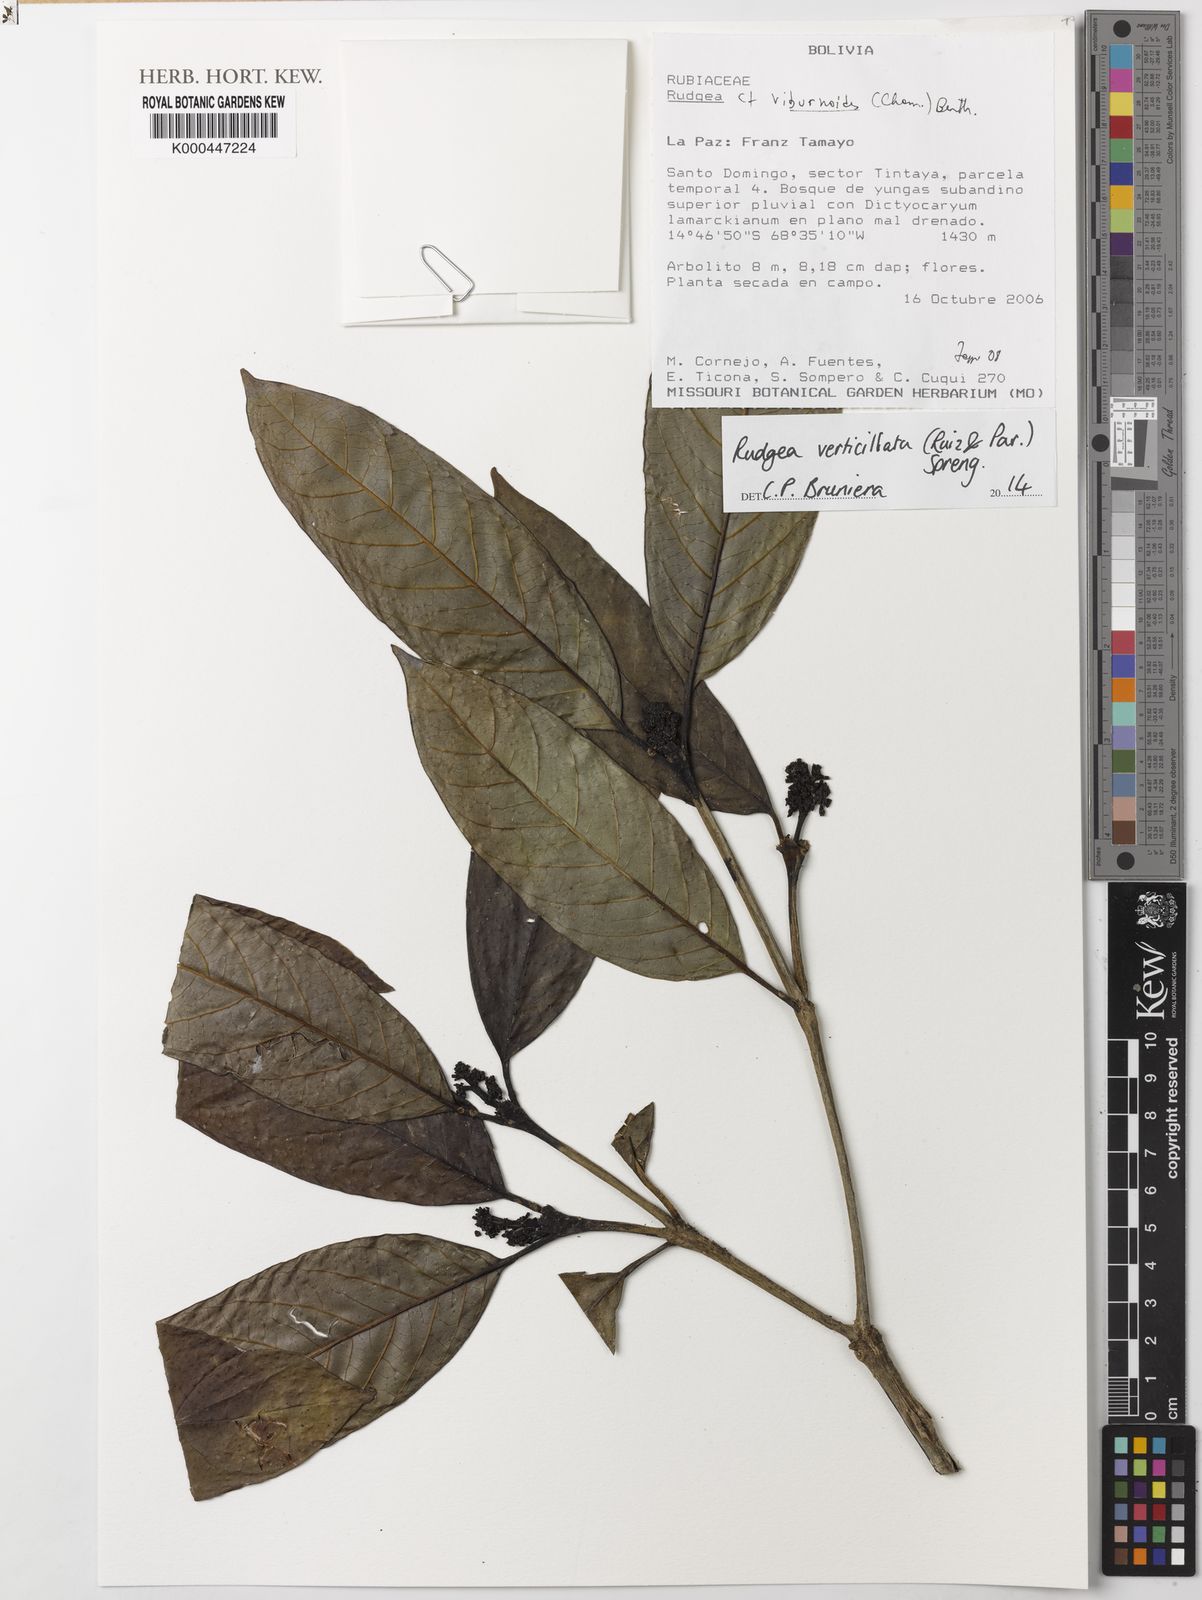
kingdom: Plantae
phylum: Tracheophyta
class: Magnoliopsida
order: Gentianales
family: Rubiaceae
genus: Rudgea
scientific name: Rudgea verticillata
